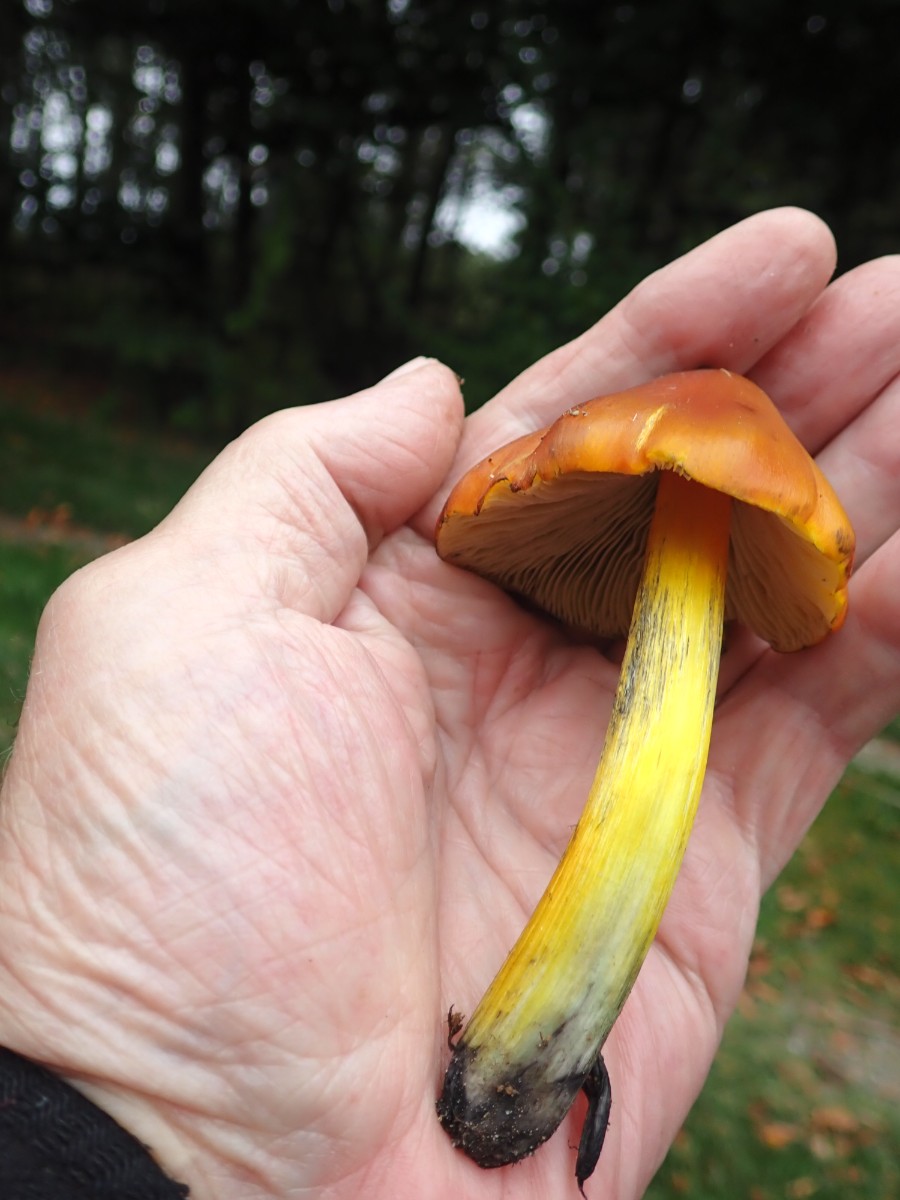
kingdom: Fungi
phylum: Basidiomycota
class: Agaricomycetes
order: Agaricales
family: Hygrophoraceae
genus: Hygrocybe
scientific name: Hygrocybe conica
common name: kegle-vokshat
